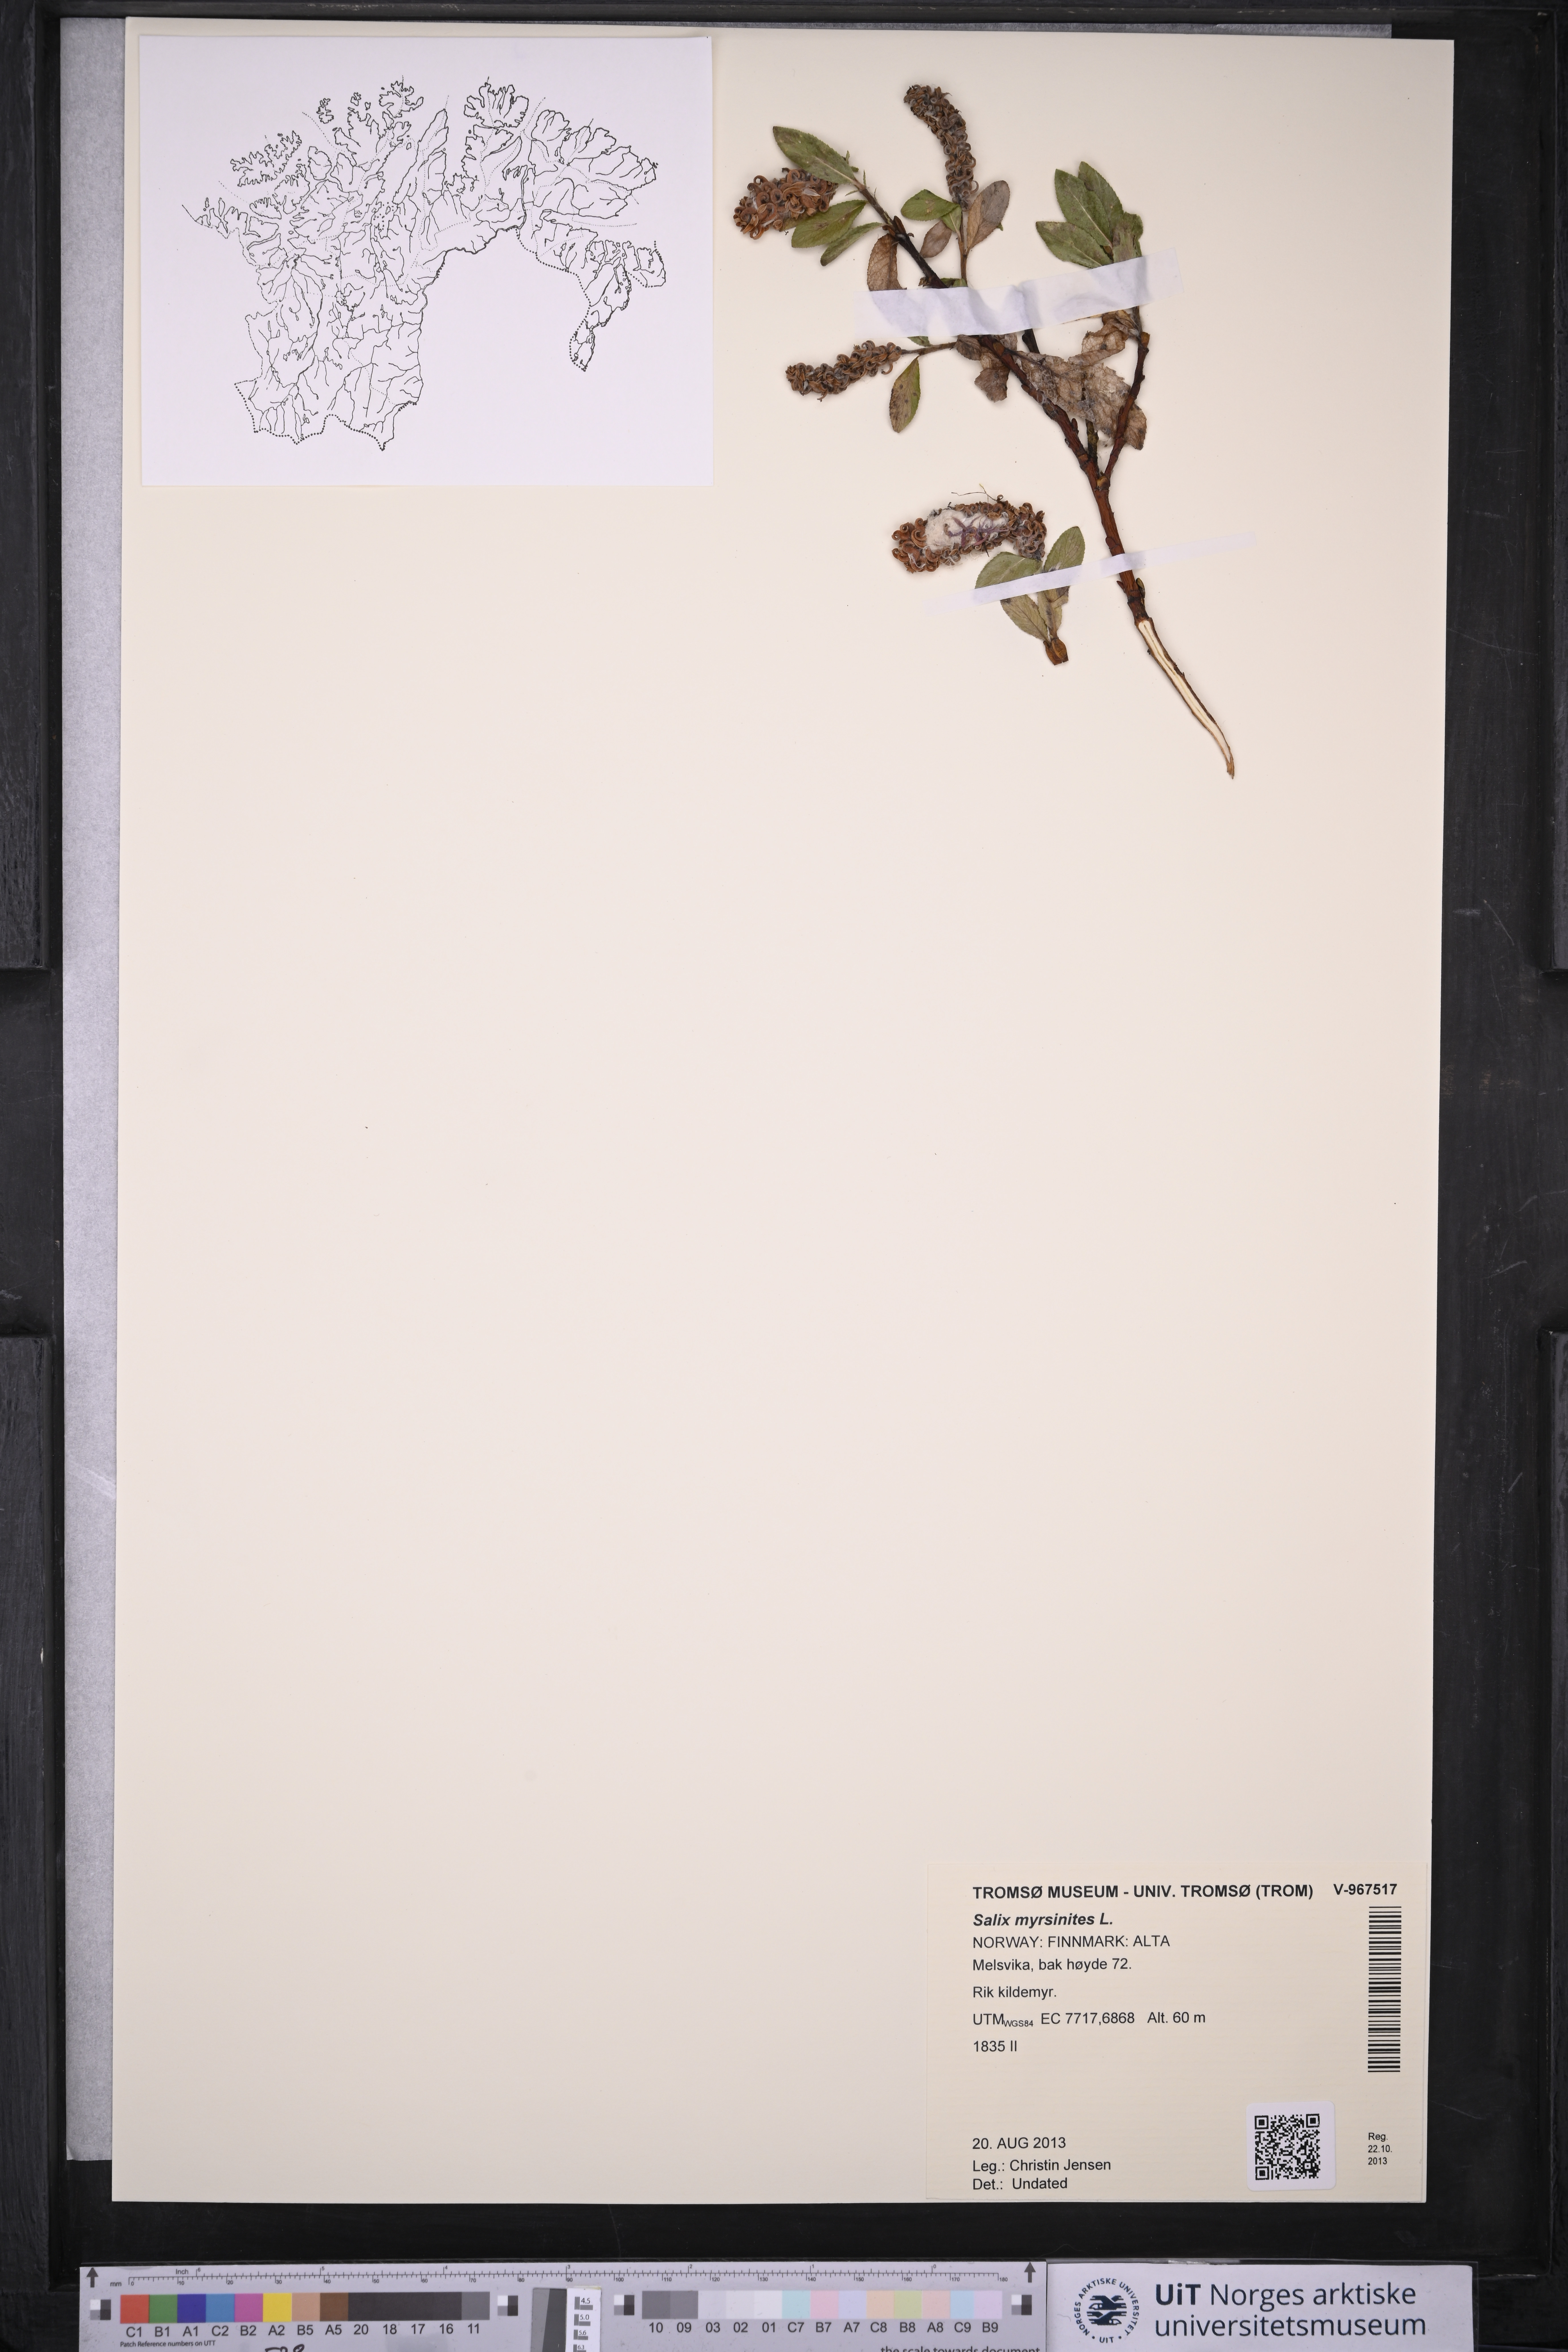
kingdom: Plantae
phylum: Tracheophyta
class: Magnoliopsida
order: Malpighiales
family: Salicaceae
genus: Salix
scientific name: Salix myrsinites
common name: Myrtle willow
